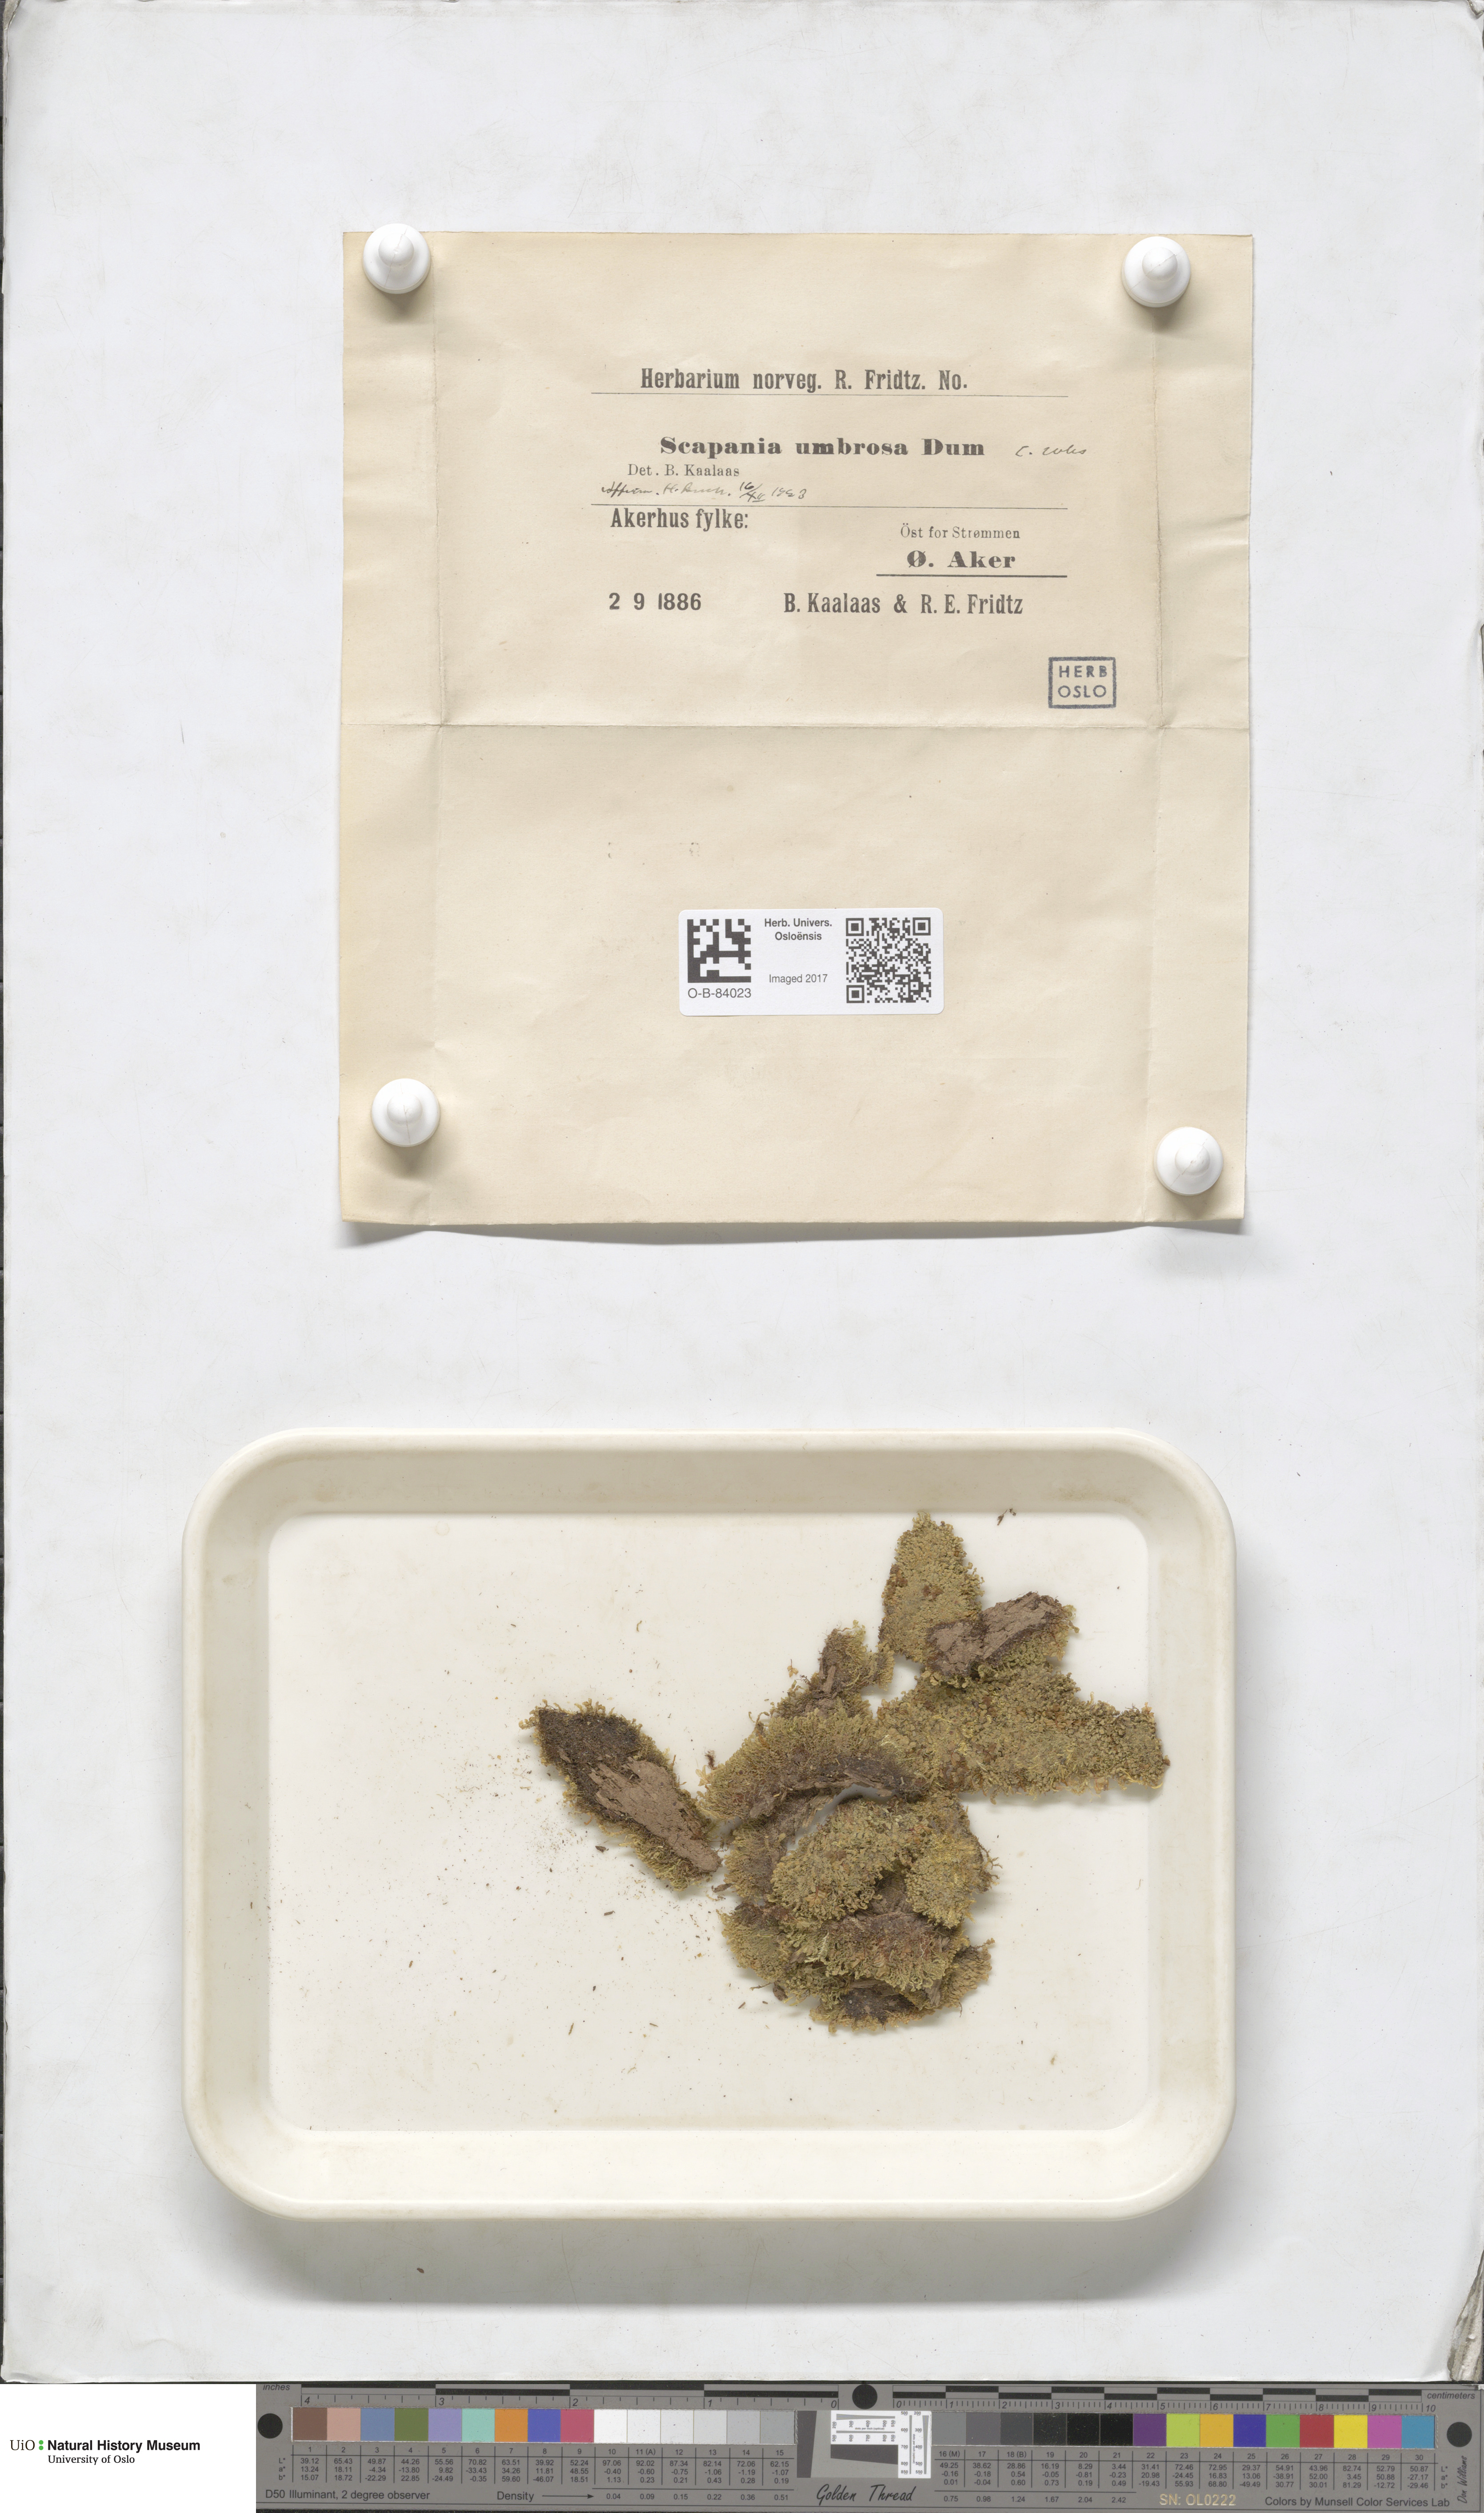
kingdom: Plantae
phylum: Marchantiophyta
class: Jungermanniopsida
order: Jungermanniales
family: Scapaniaceae
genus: Scapania
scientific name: Scapania umbrosa
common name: Shady earwort
